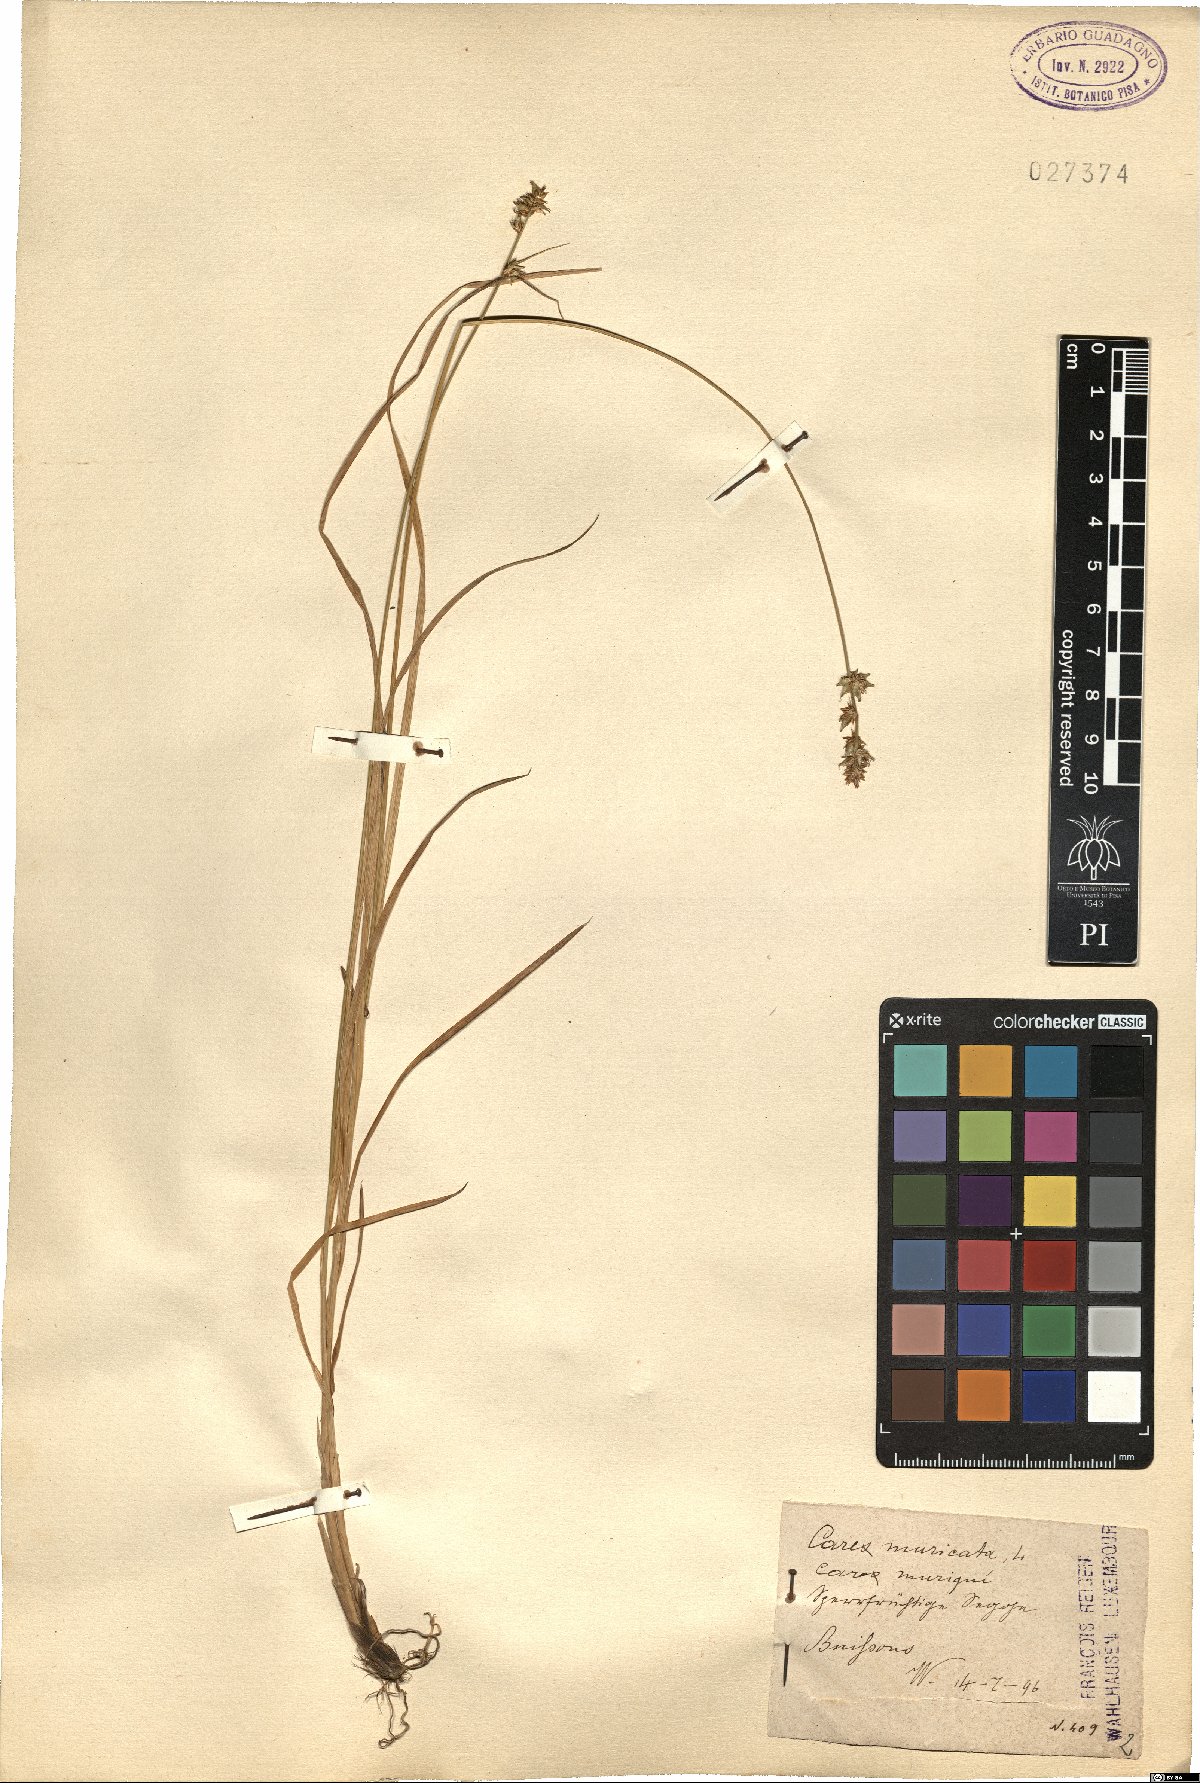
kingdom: Plantae
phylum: Tracheophyta
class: Liliopsida
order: Poales
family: Cyperaceae
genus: Carex
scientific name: Carex muricata
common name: Rough sedge
